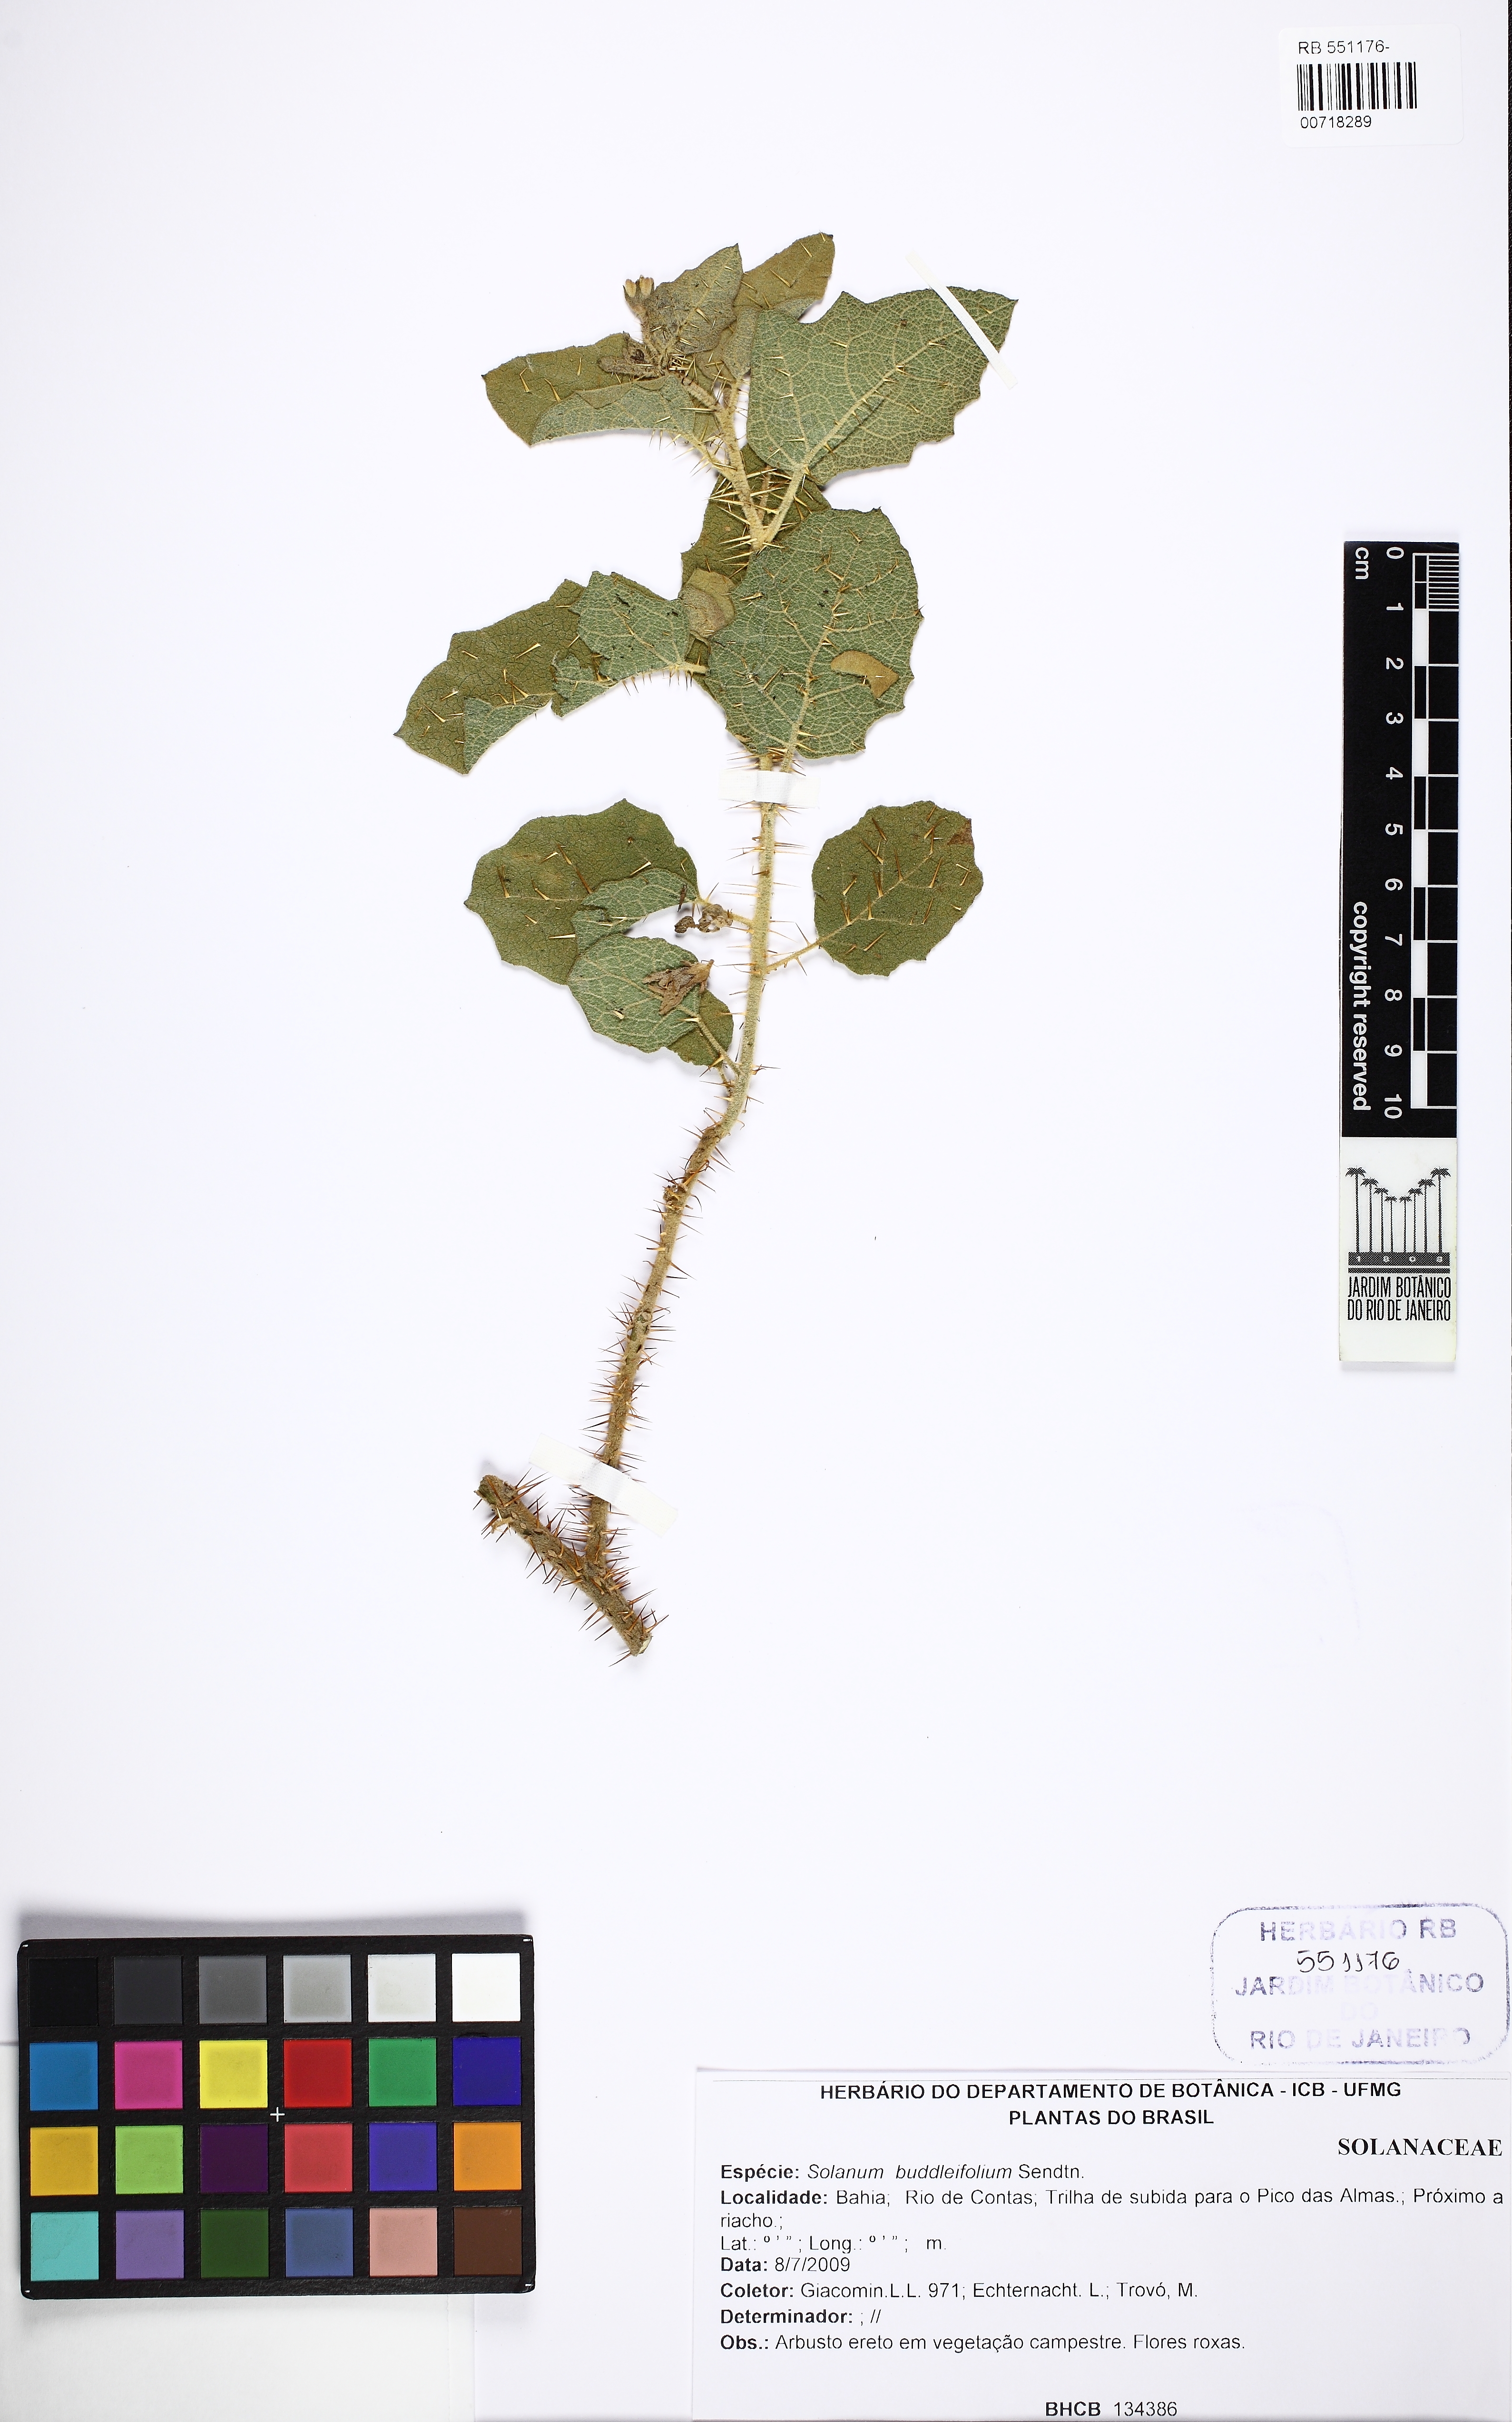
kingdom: Plantae
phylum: Tracheophyta
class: Magnoliopsida
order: Solanales
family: Solanaceae
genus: Solanum
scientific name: Solanum thomasiifolium
